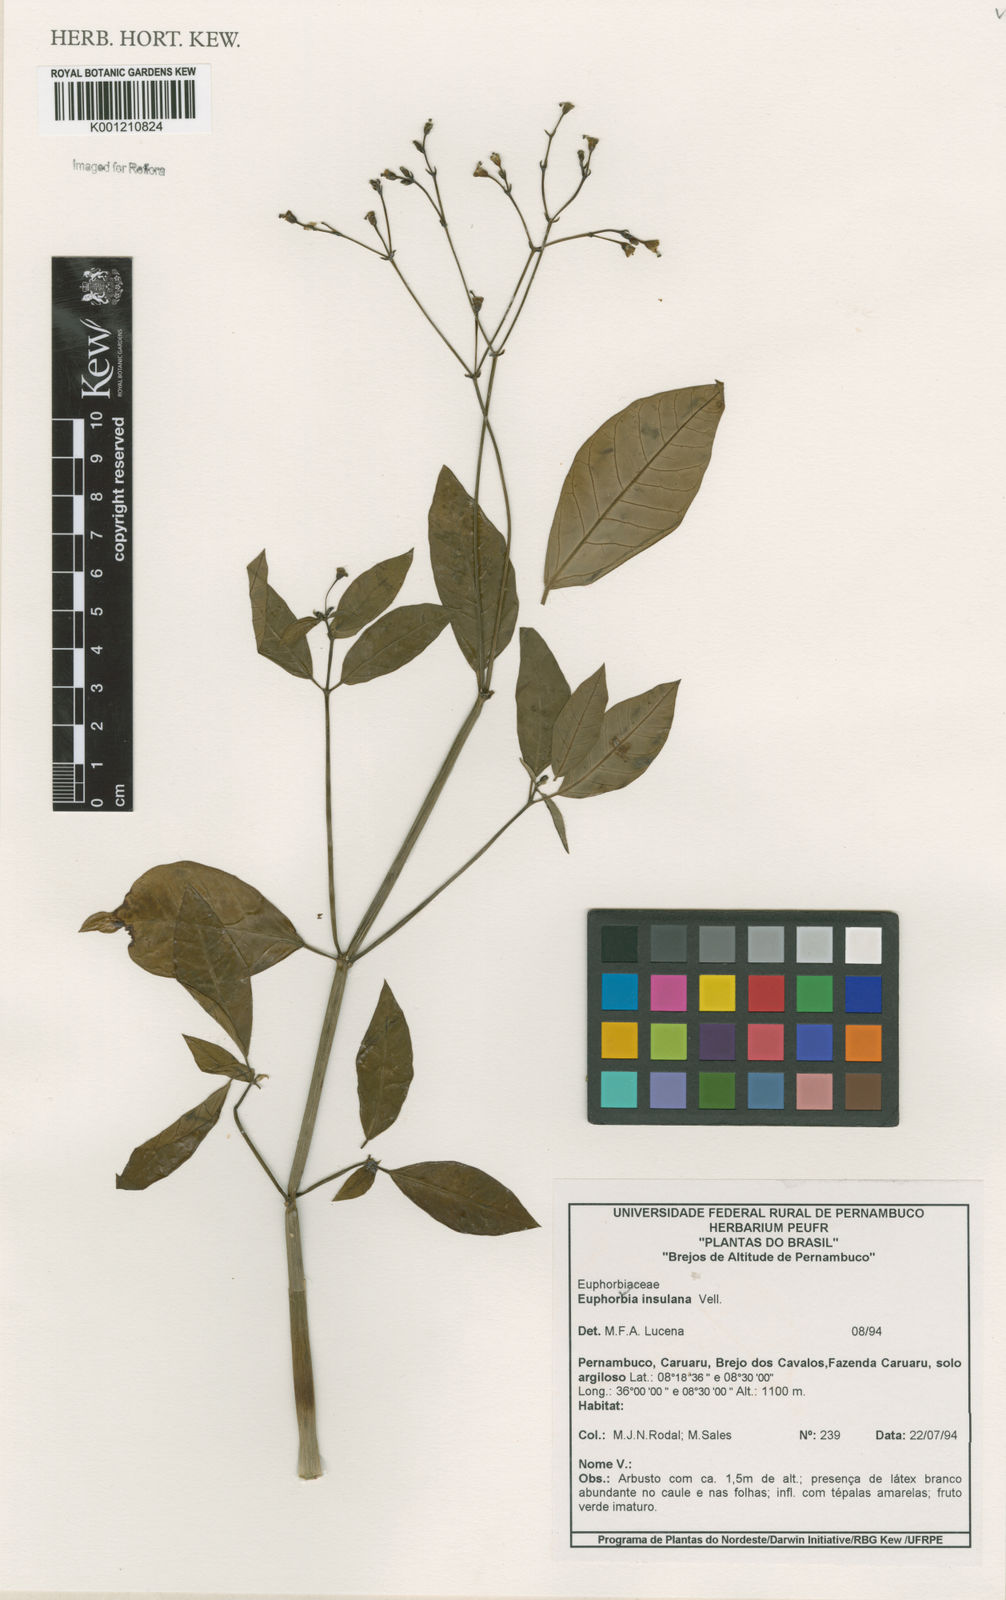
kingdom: Plantae
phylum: Tracheophyta
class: Magnoliopsida
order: Malpighiales
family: Euphorbiaceae
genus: Euphorbia
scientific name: Euphorbia insulana
